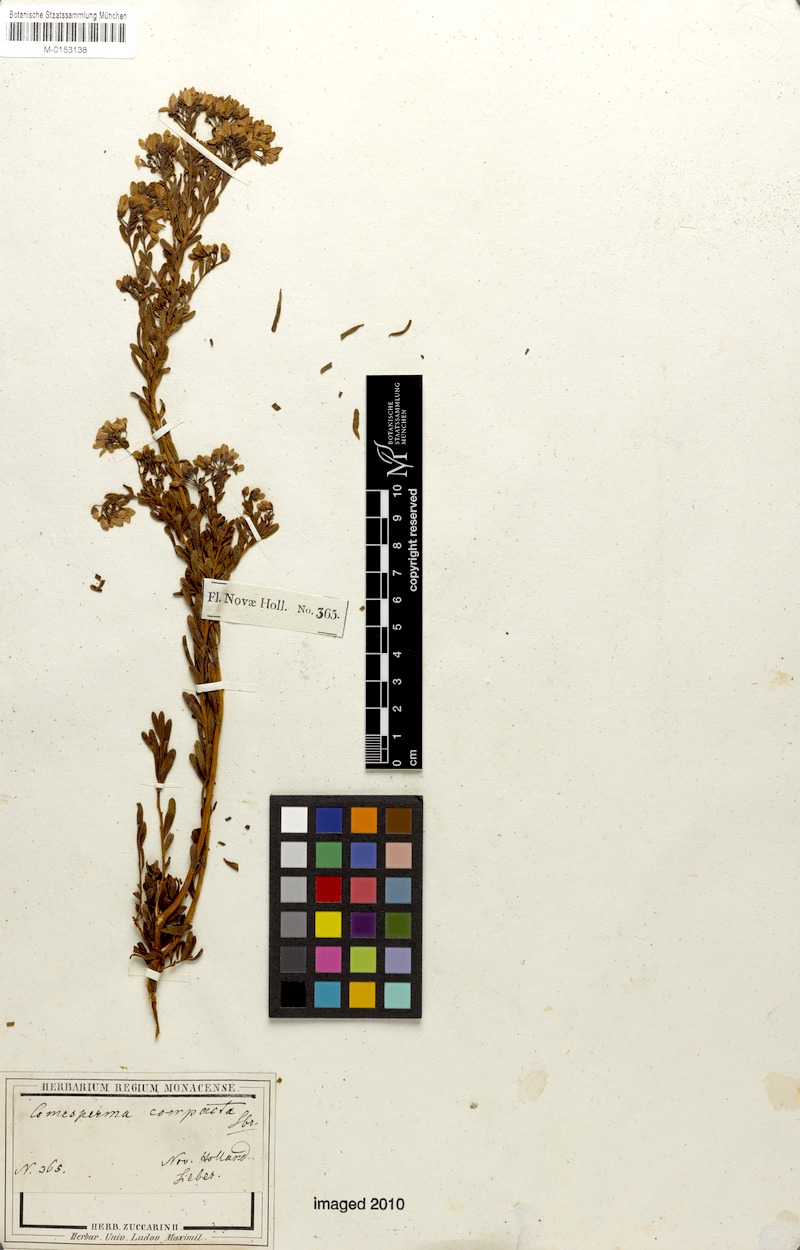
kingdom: Plantae
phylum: Tracheophyta
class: Magnoliopsida
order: Fabales
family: Polygalaceae
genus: Comesperma
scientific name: Comesperma retusum
